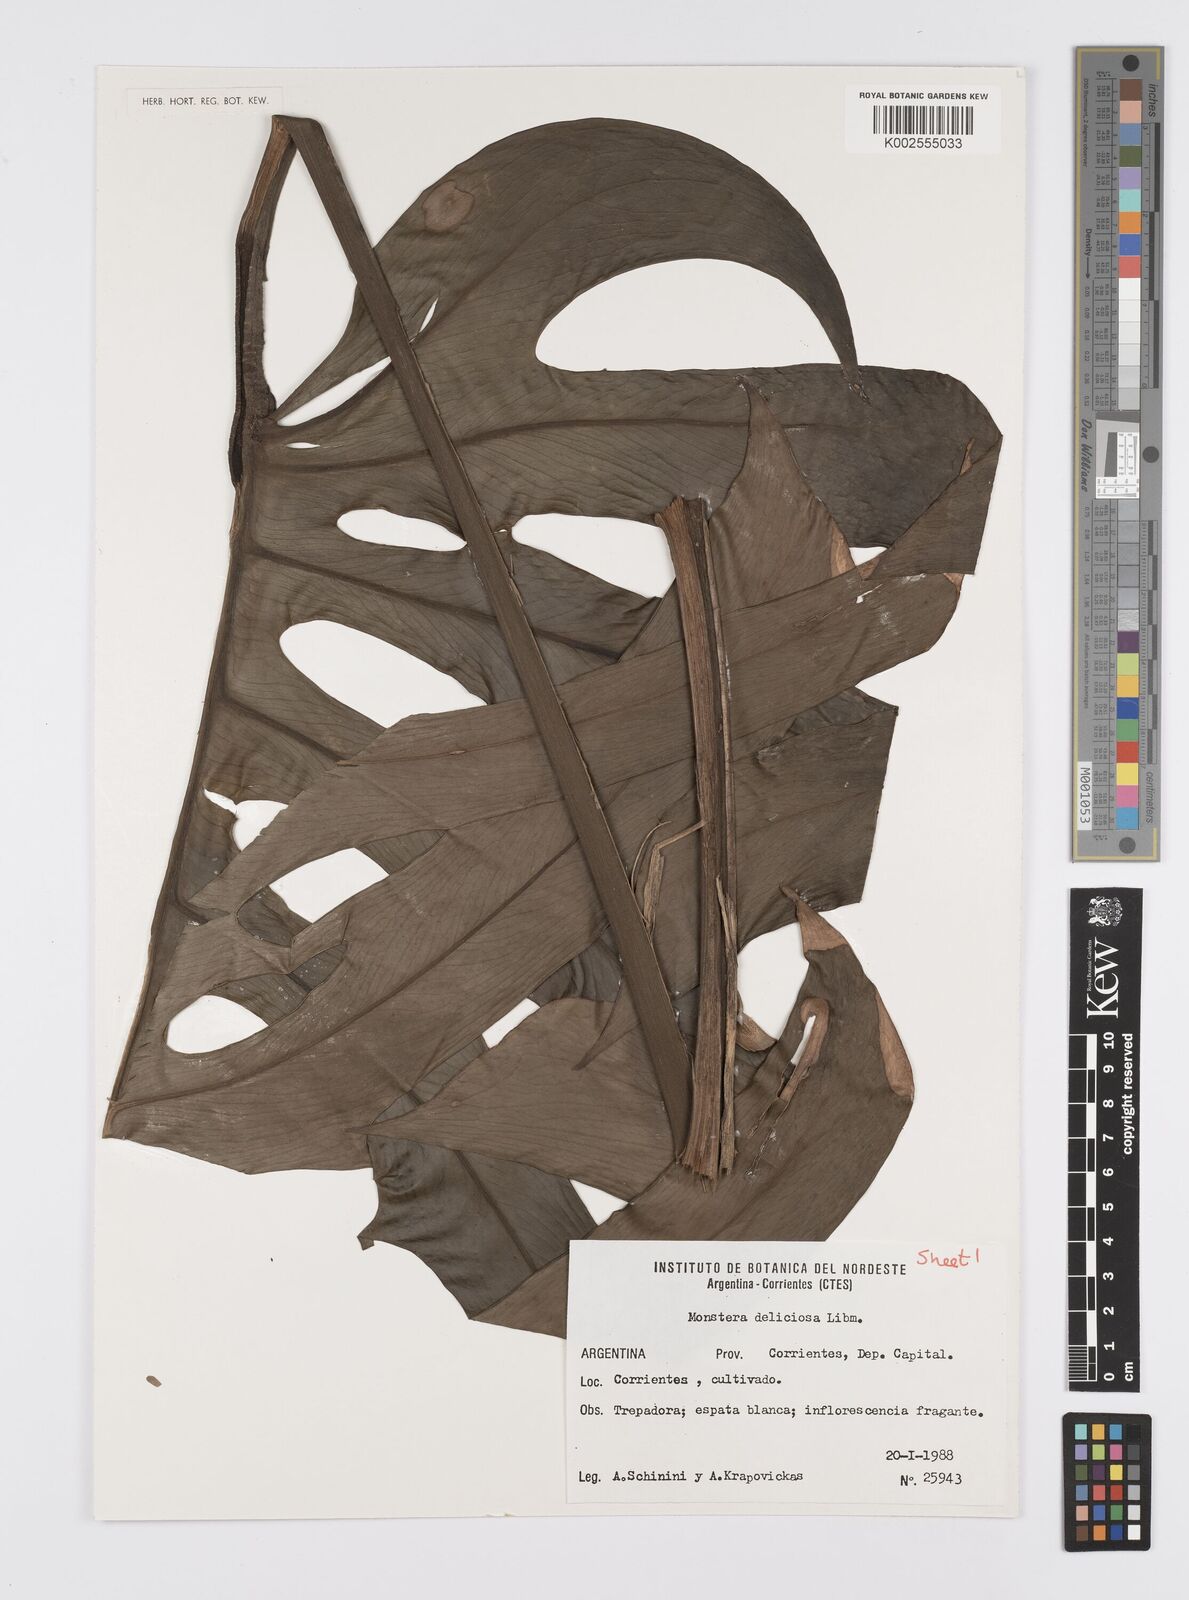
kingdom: Plantae
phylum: Tracheophyta
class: Liliopsida
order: Alismatales
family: Araceae
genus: Monstera
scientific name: Monstera deliciosa
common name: Cut-leaf-philodendron
